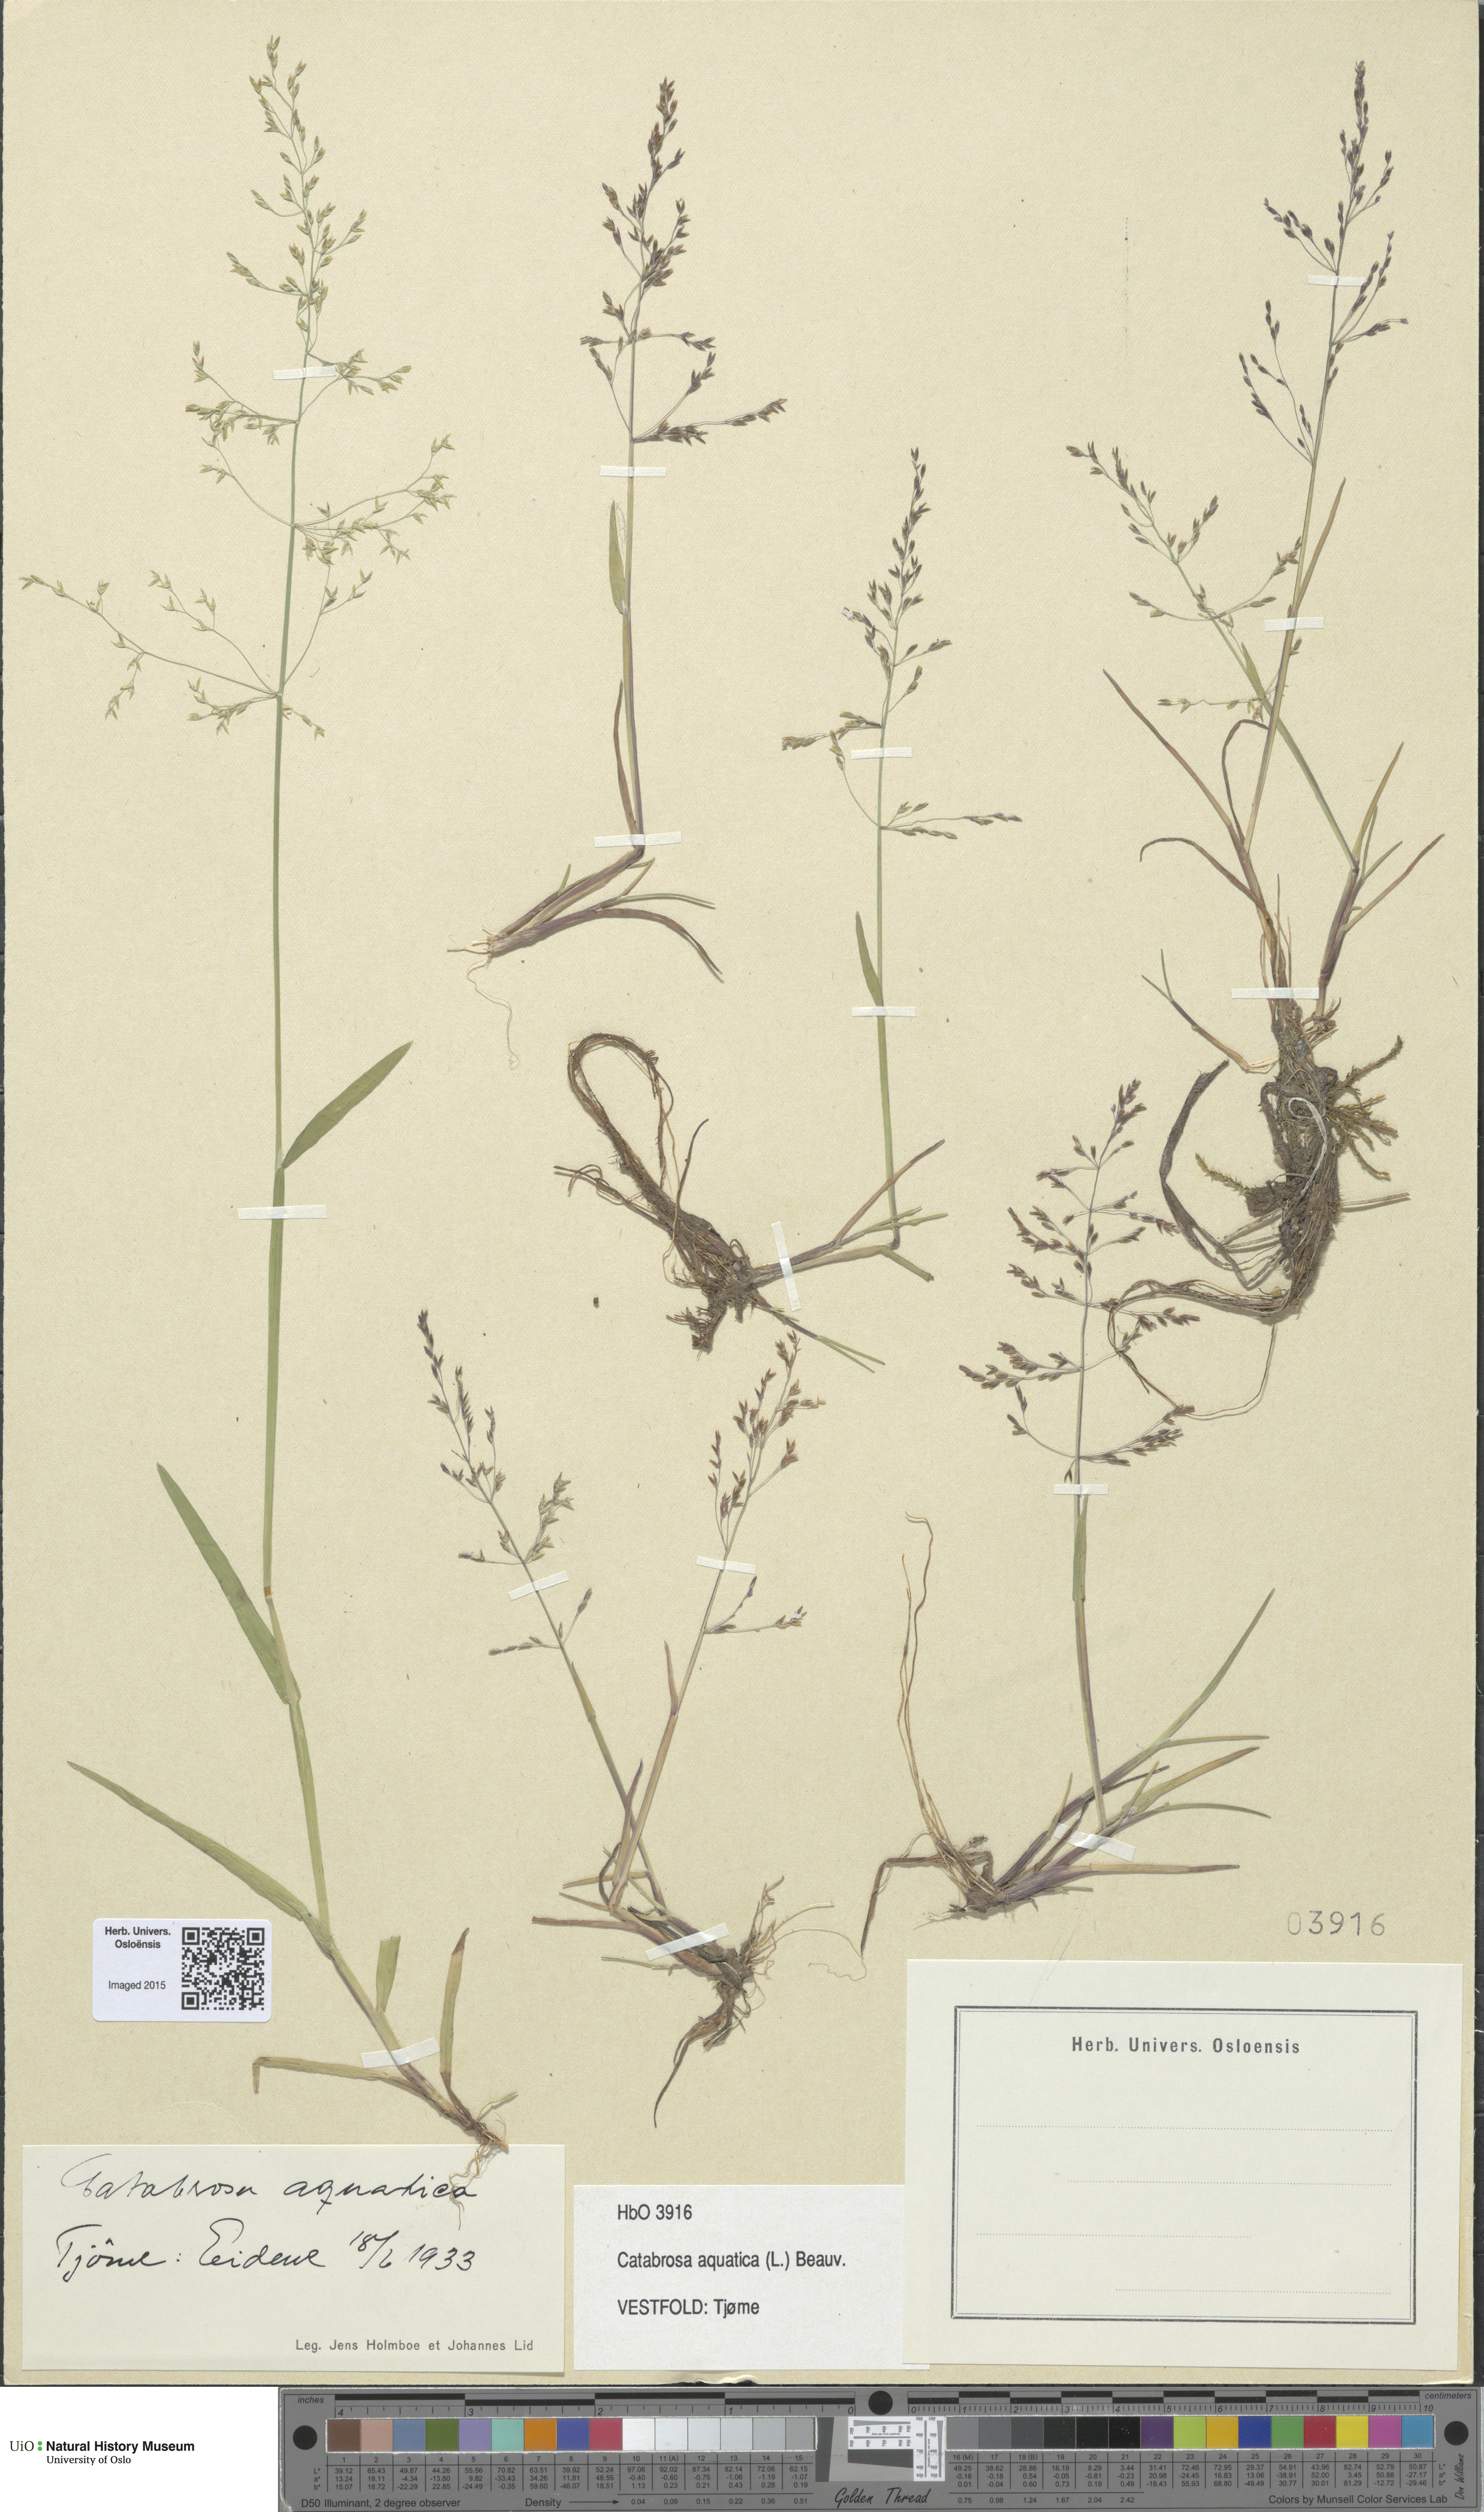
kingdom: Plantae
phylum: Tracheophyta
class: Liliopsida
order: Poales
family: Poaceae
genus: Catabrosa
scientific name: Catabrosa aquatica
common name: Whorl-grass
